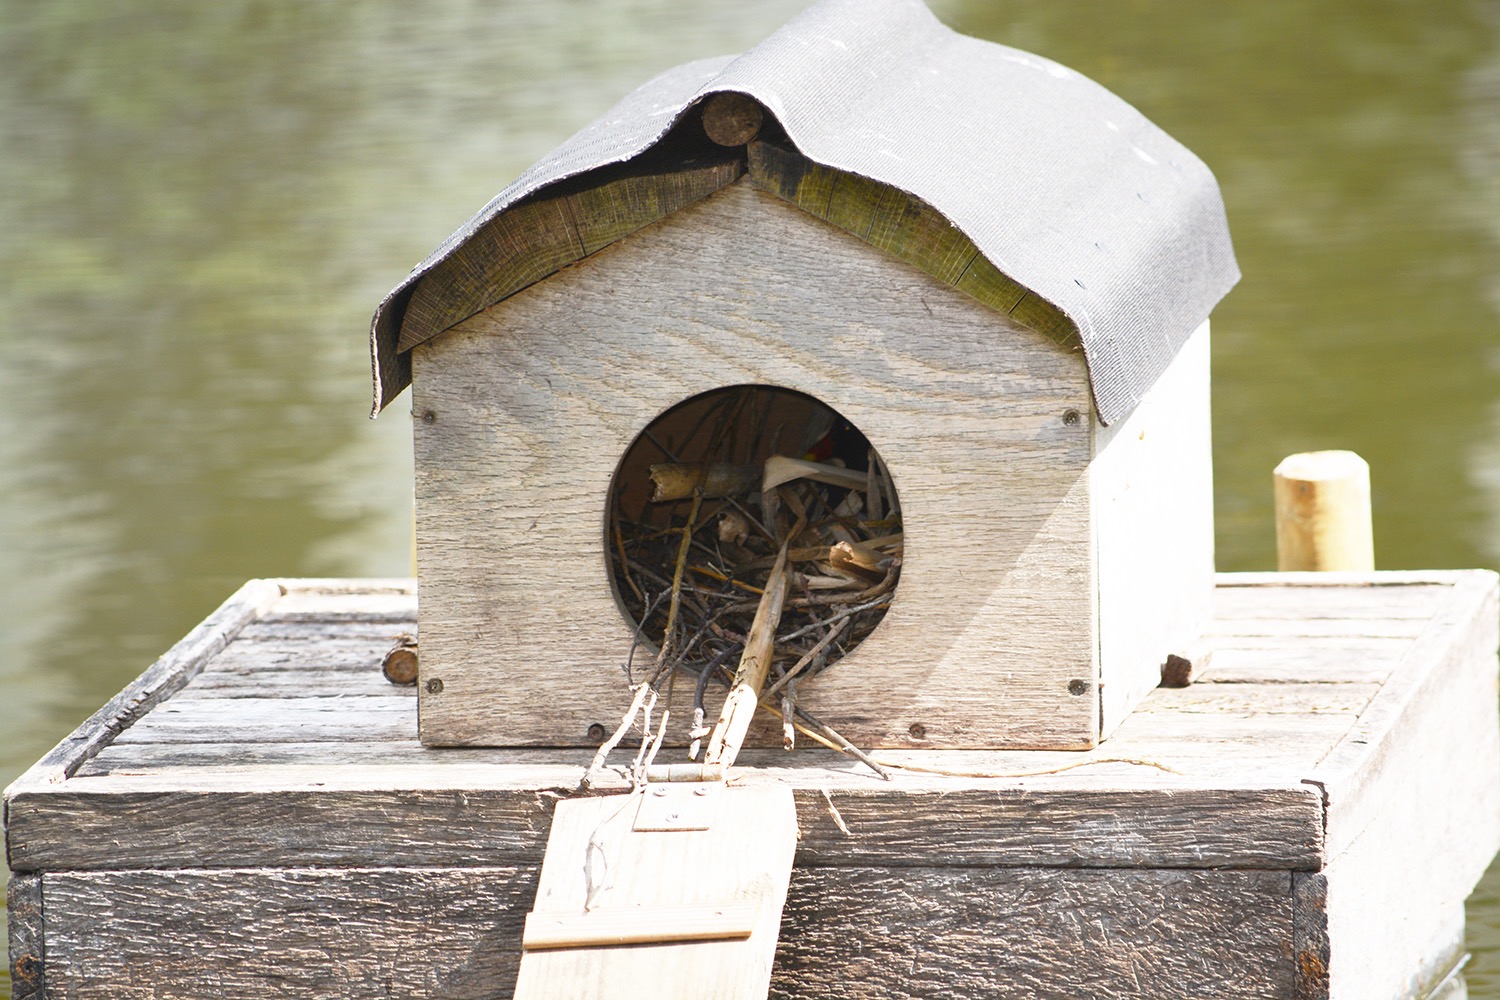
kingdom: Animalia
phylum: Chordata
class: Aves
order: Gruiformes
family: Rallidae
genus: Gallinula
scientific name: Gallinula chloropus
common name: Grønbenet rørhøne
